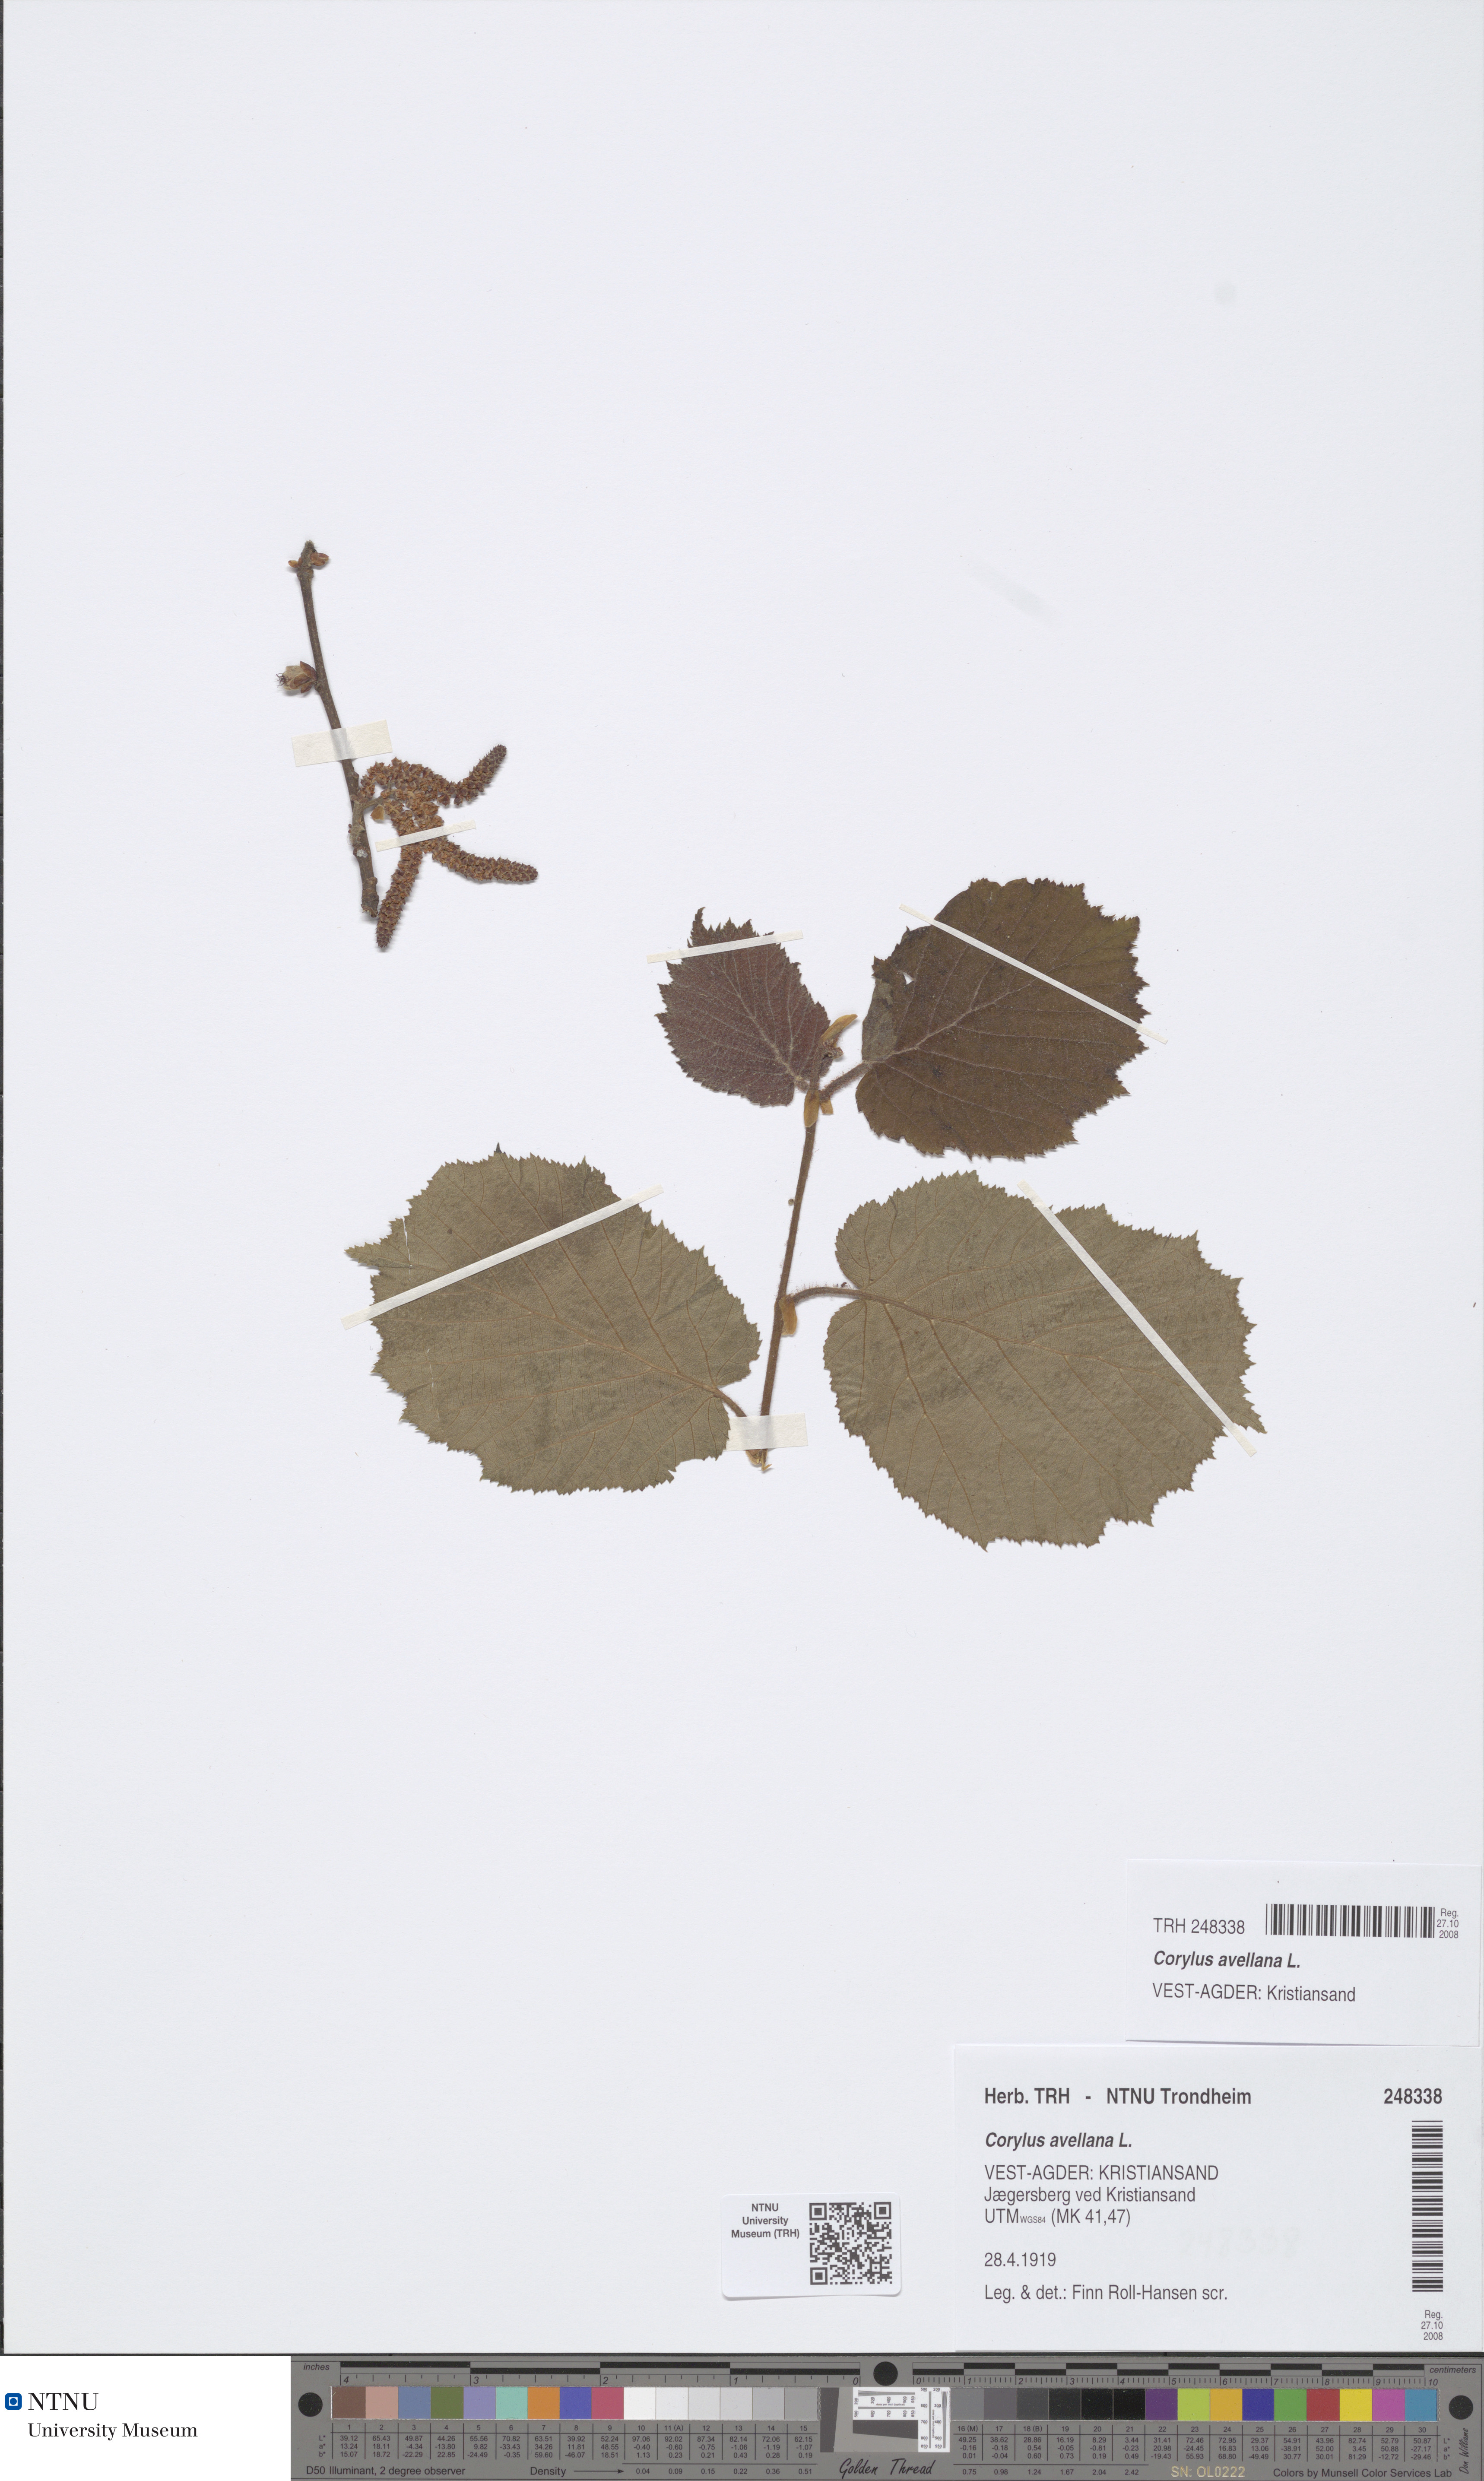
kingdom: Plantae
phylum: Tracheophyta
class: Magnoliopsida
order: Fagales
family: Betulaceae
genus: Corylus
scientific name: Corylus avellana
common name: European hazel
